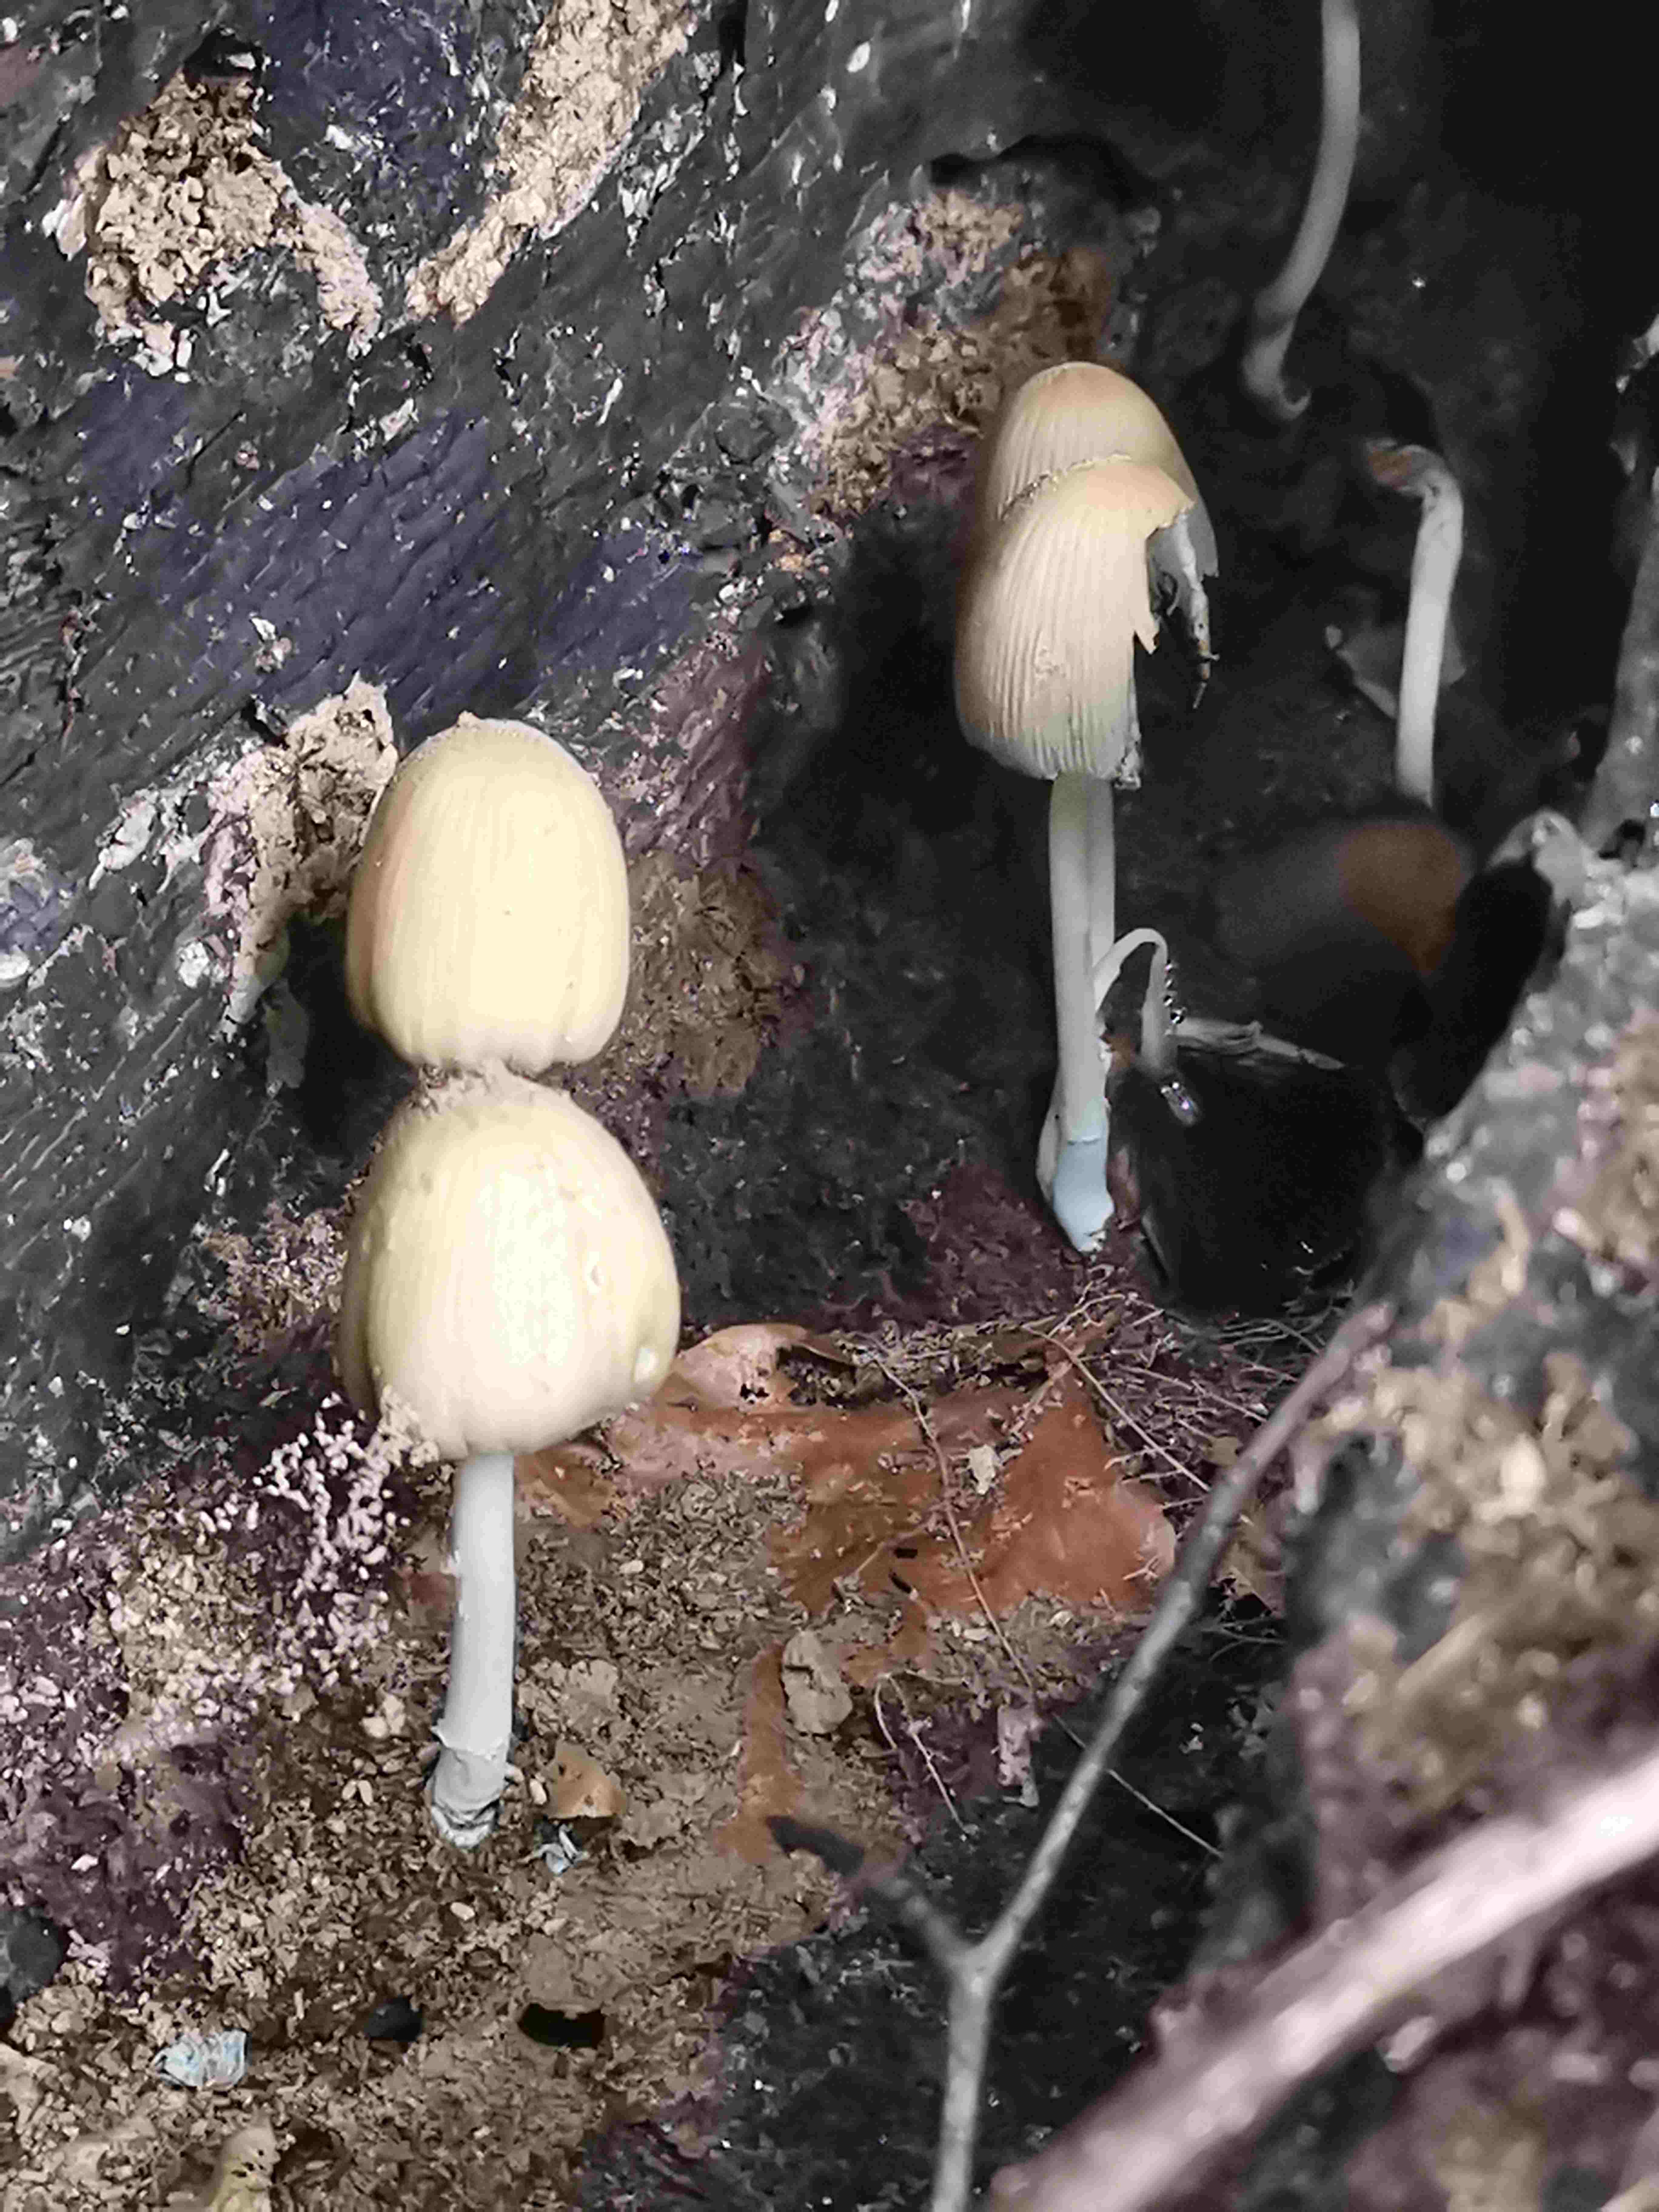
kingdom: Fungi
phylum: Basidiomycota
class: Agaricomycetes
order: Agaricales
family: Psathyrellaceae
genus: Coprinellus
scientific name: Coprinellus
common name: blækhat
